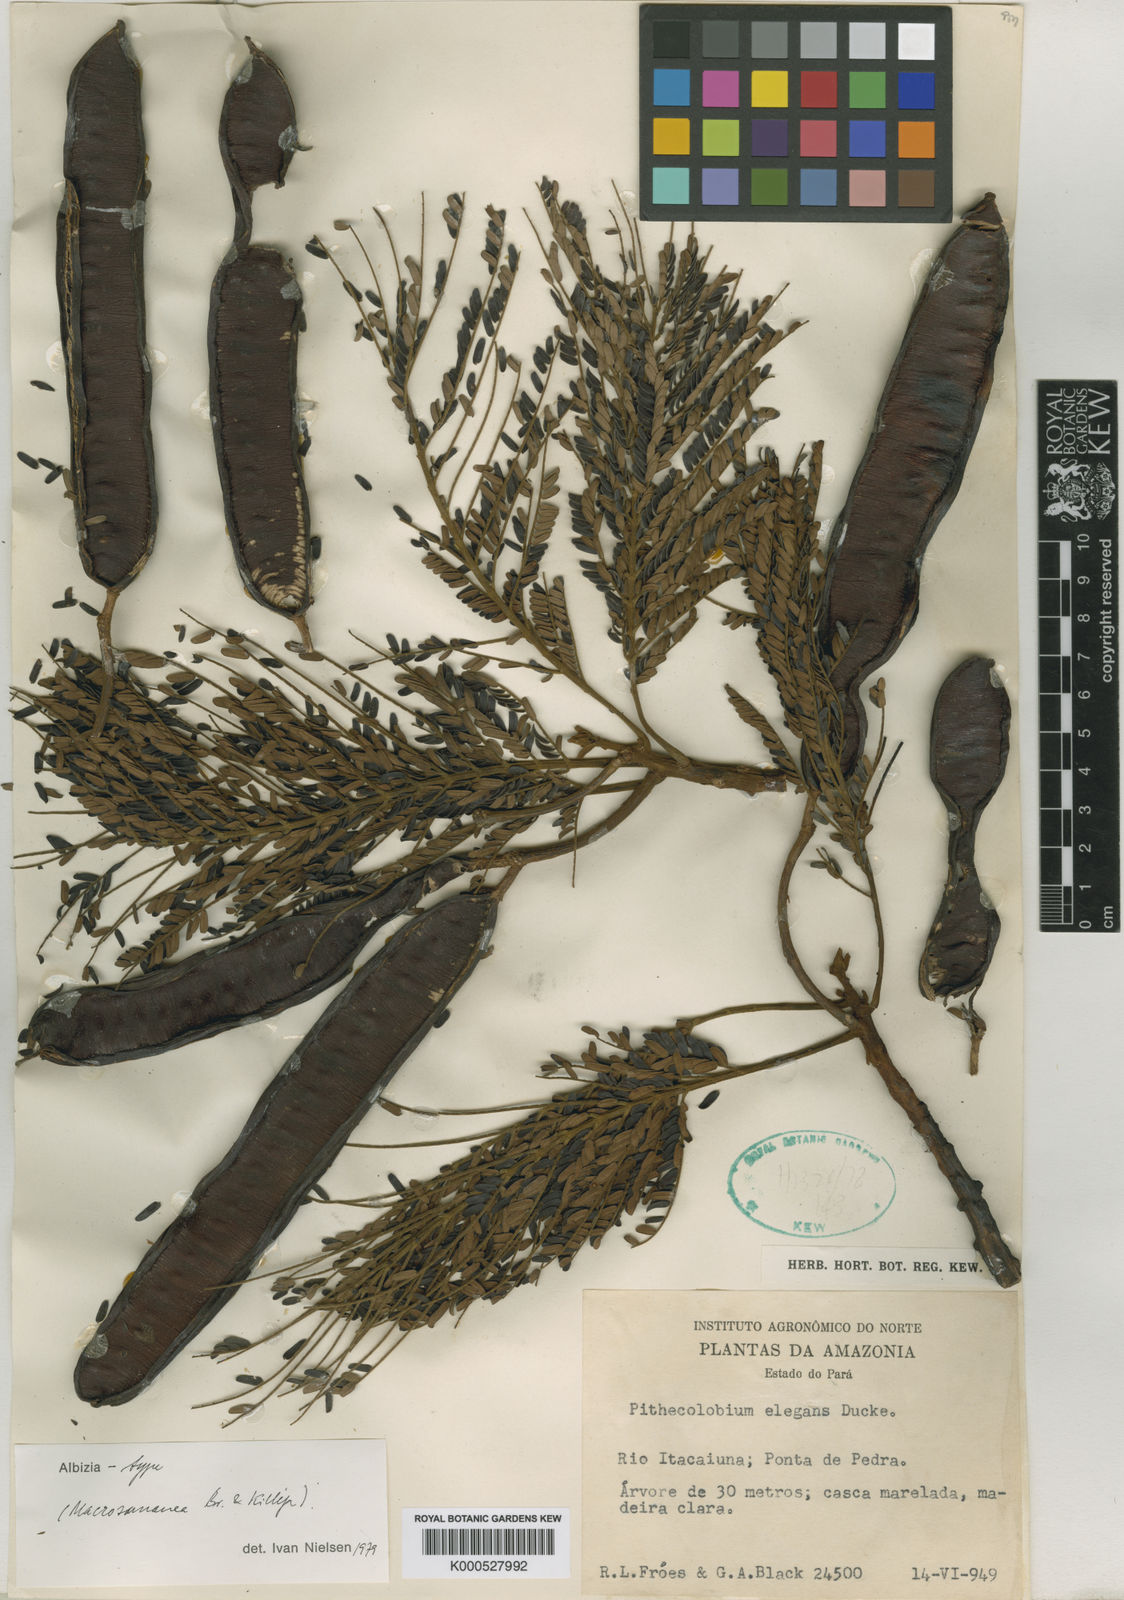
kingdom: Plantae
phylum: Tracheophyta
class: Magnoliopsida
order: Fabales
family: Fabaceae
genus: Albizia
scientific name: Albizia
